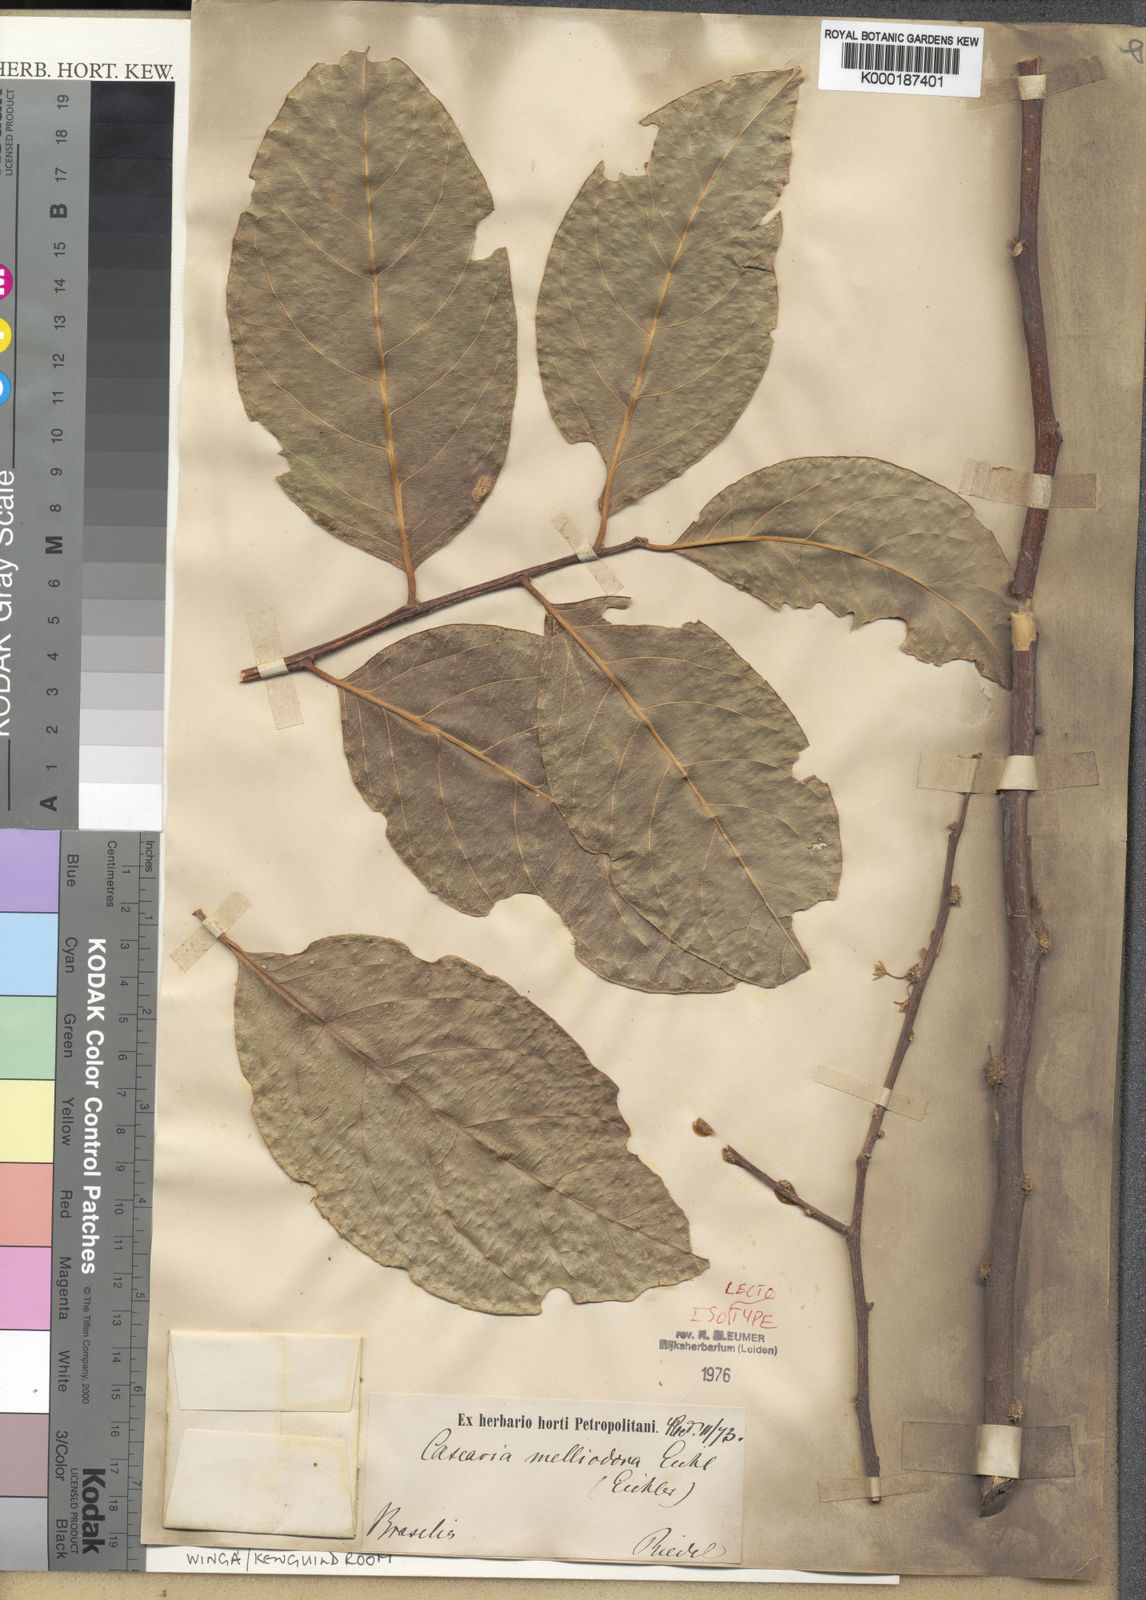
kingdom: Plantae
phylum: Tracheophyta
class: Magnoliopsida
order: Malpighiales
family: Salicaceae
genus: Casearia
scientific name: Casearia melliodora
